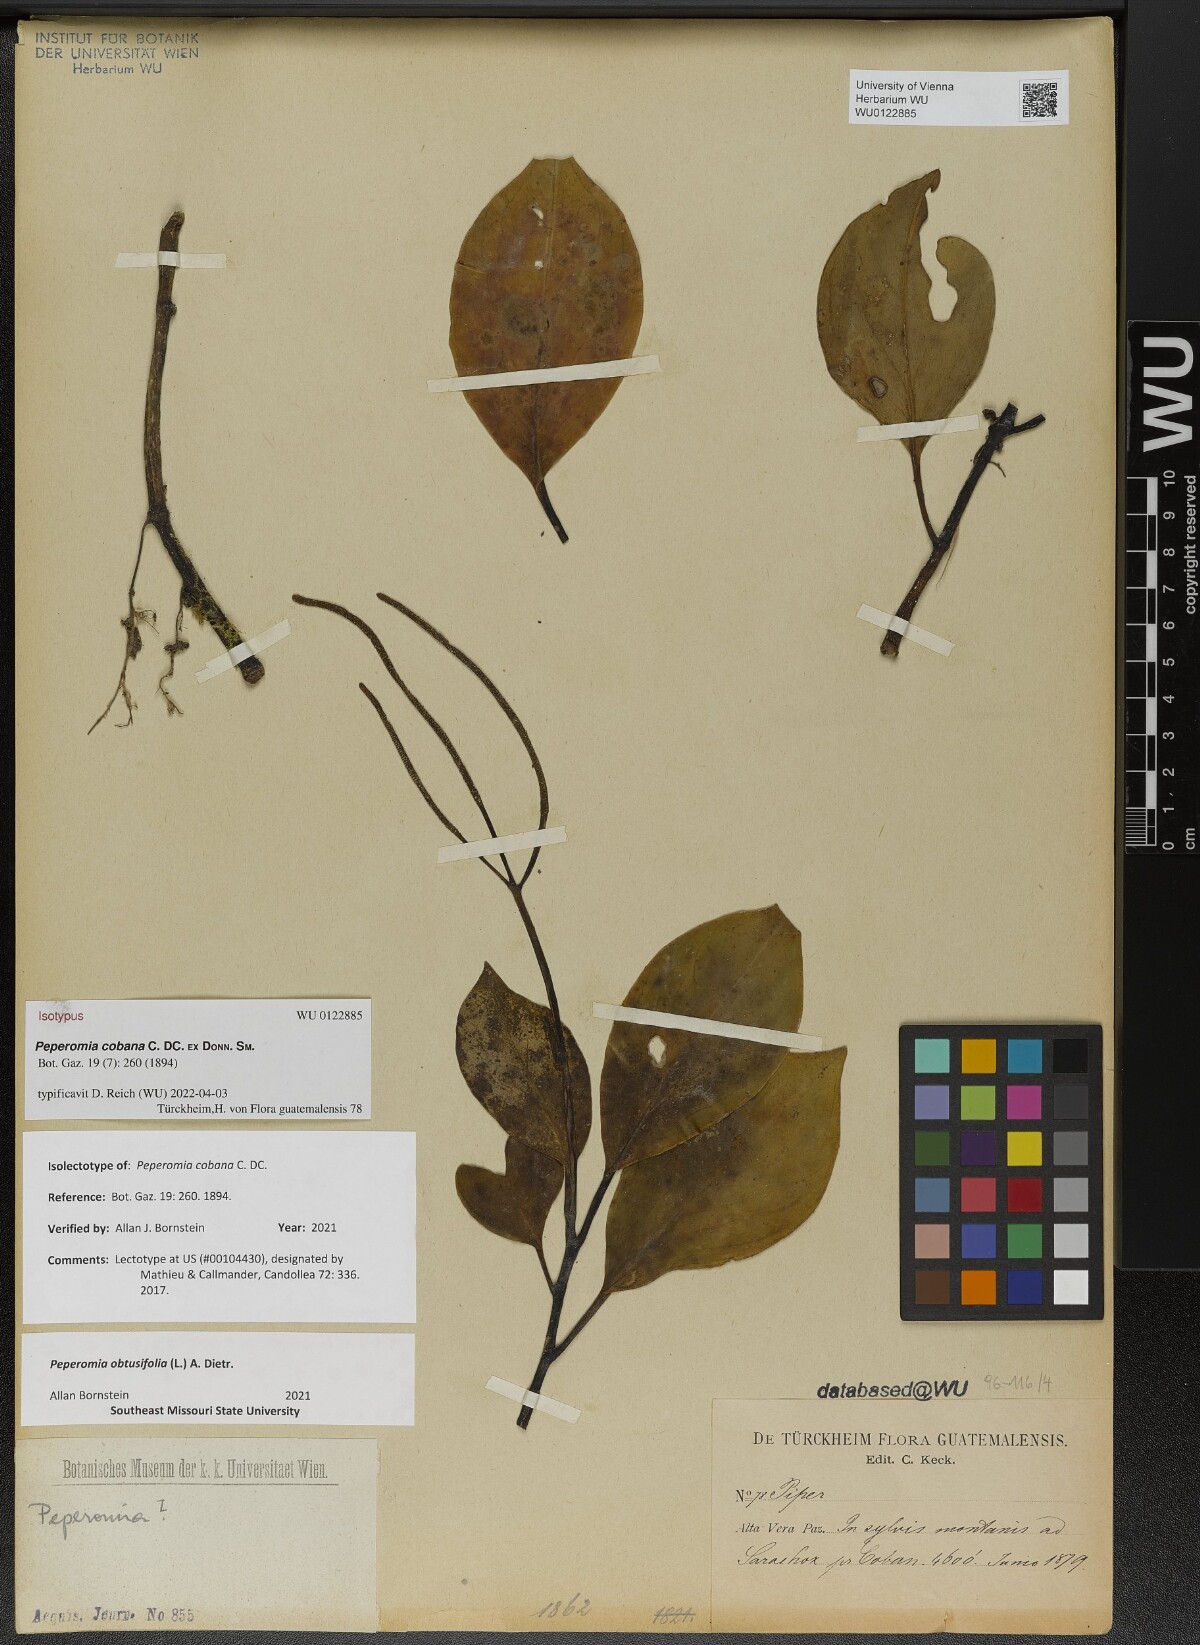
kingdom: Plantae
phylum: Tracheophyta
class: Magnoliopsida
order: Piperales
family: Piperaceae
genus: Peperomia
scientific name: Peperomia cobana
